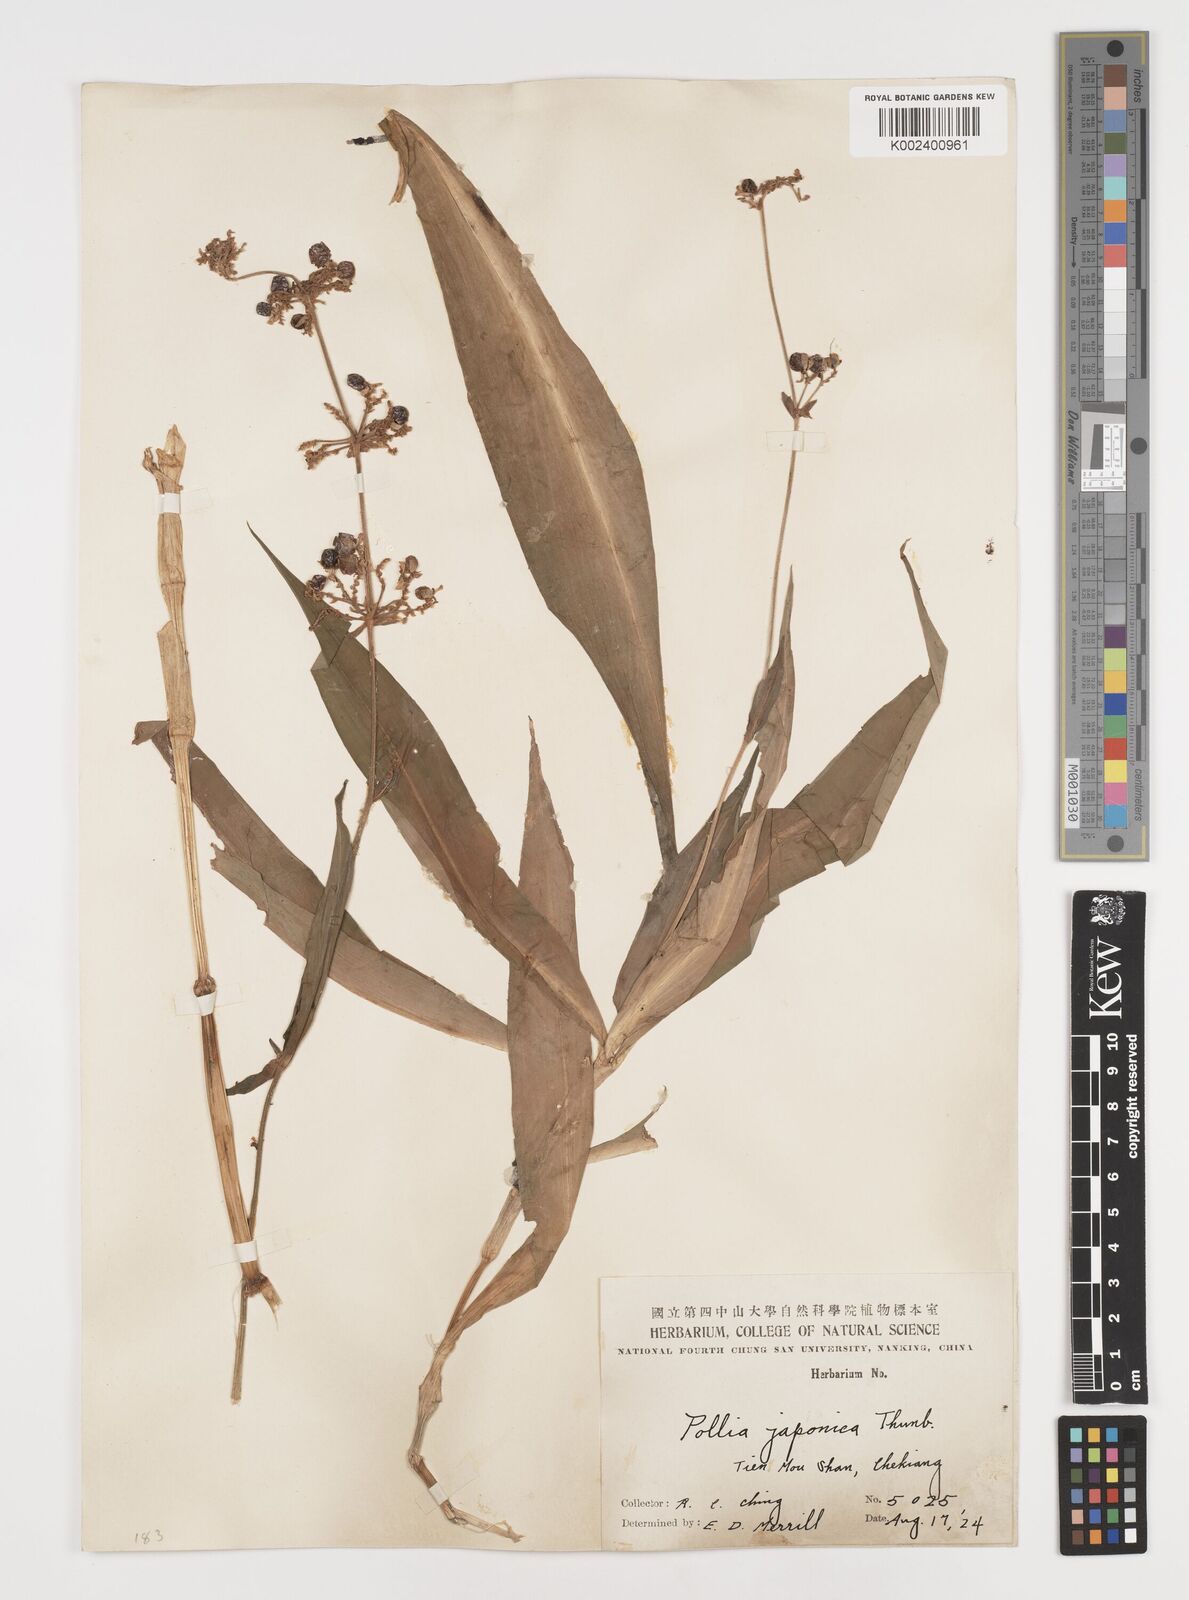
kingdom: Plantae
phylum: Tracheophyta
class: Liliopsida
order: Commelinales
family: Commelinaceae
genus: Pollia
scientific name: Pollia japonica
